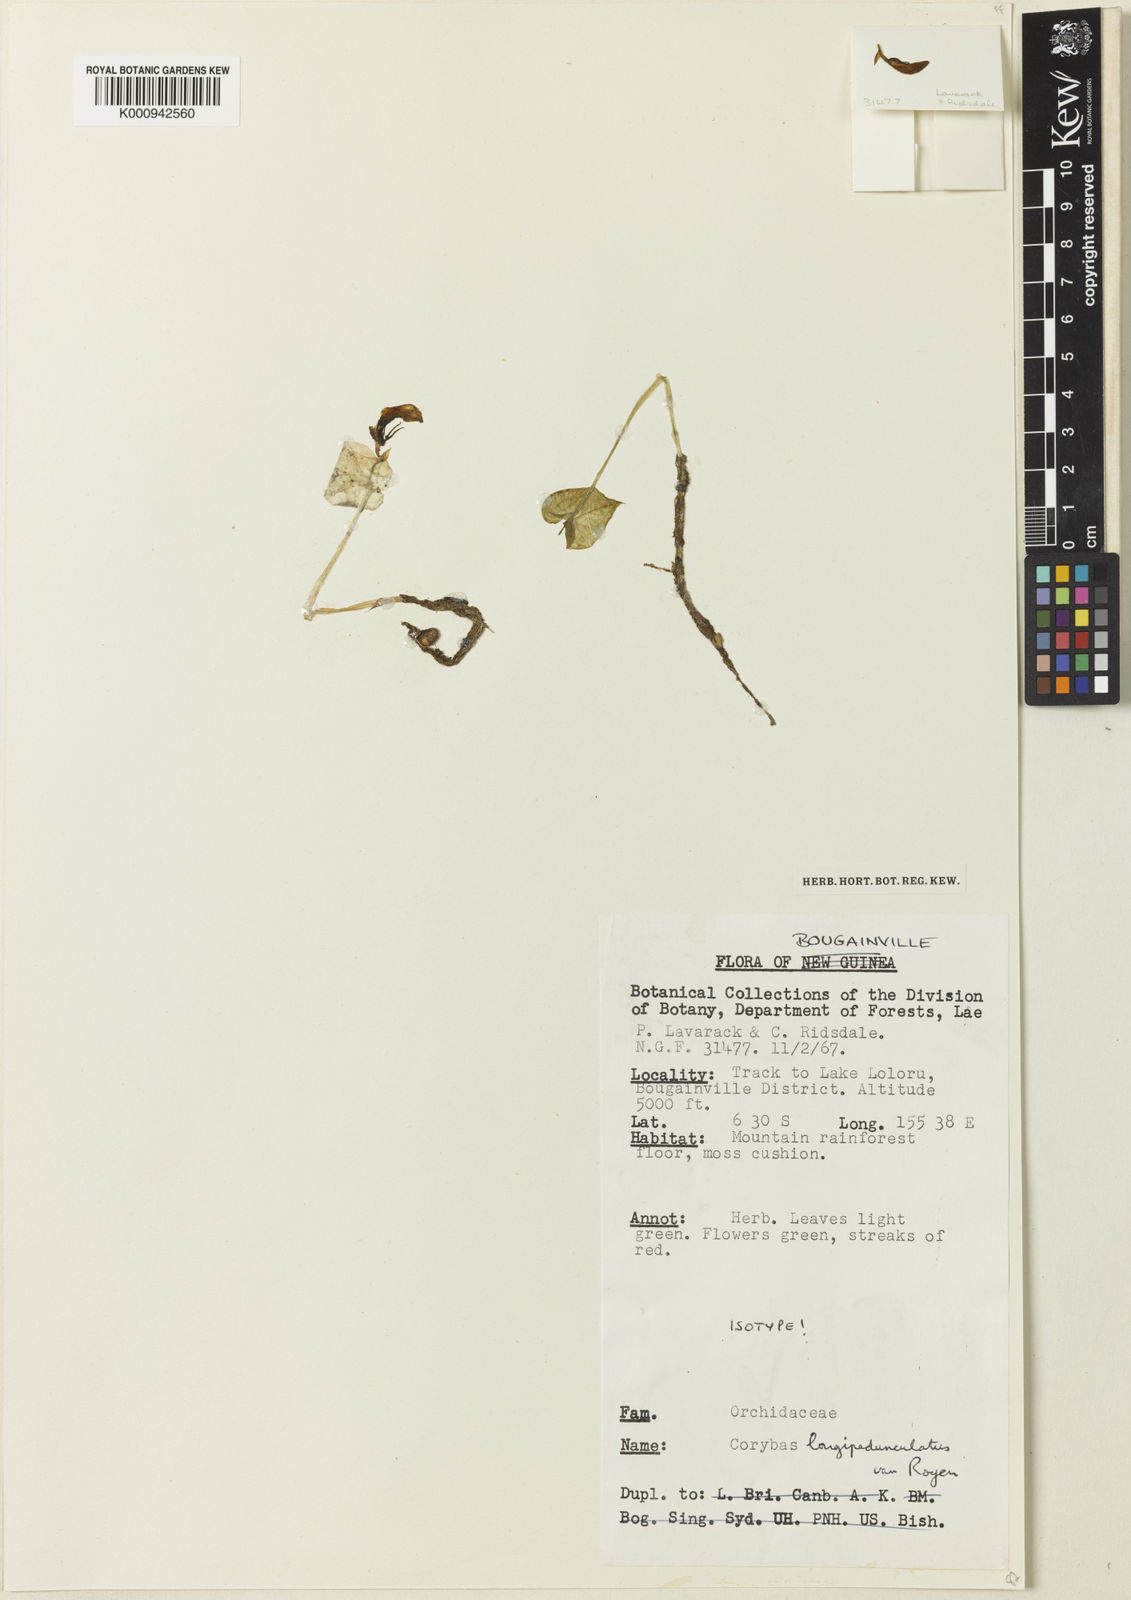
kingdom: Plantae
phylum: Tracheophyta
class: Liliopsida
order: Asparagales
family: Orchidaceae
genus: Corybas
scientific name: Corybas longipedunculatus
